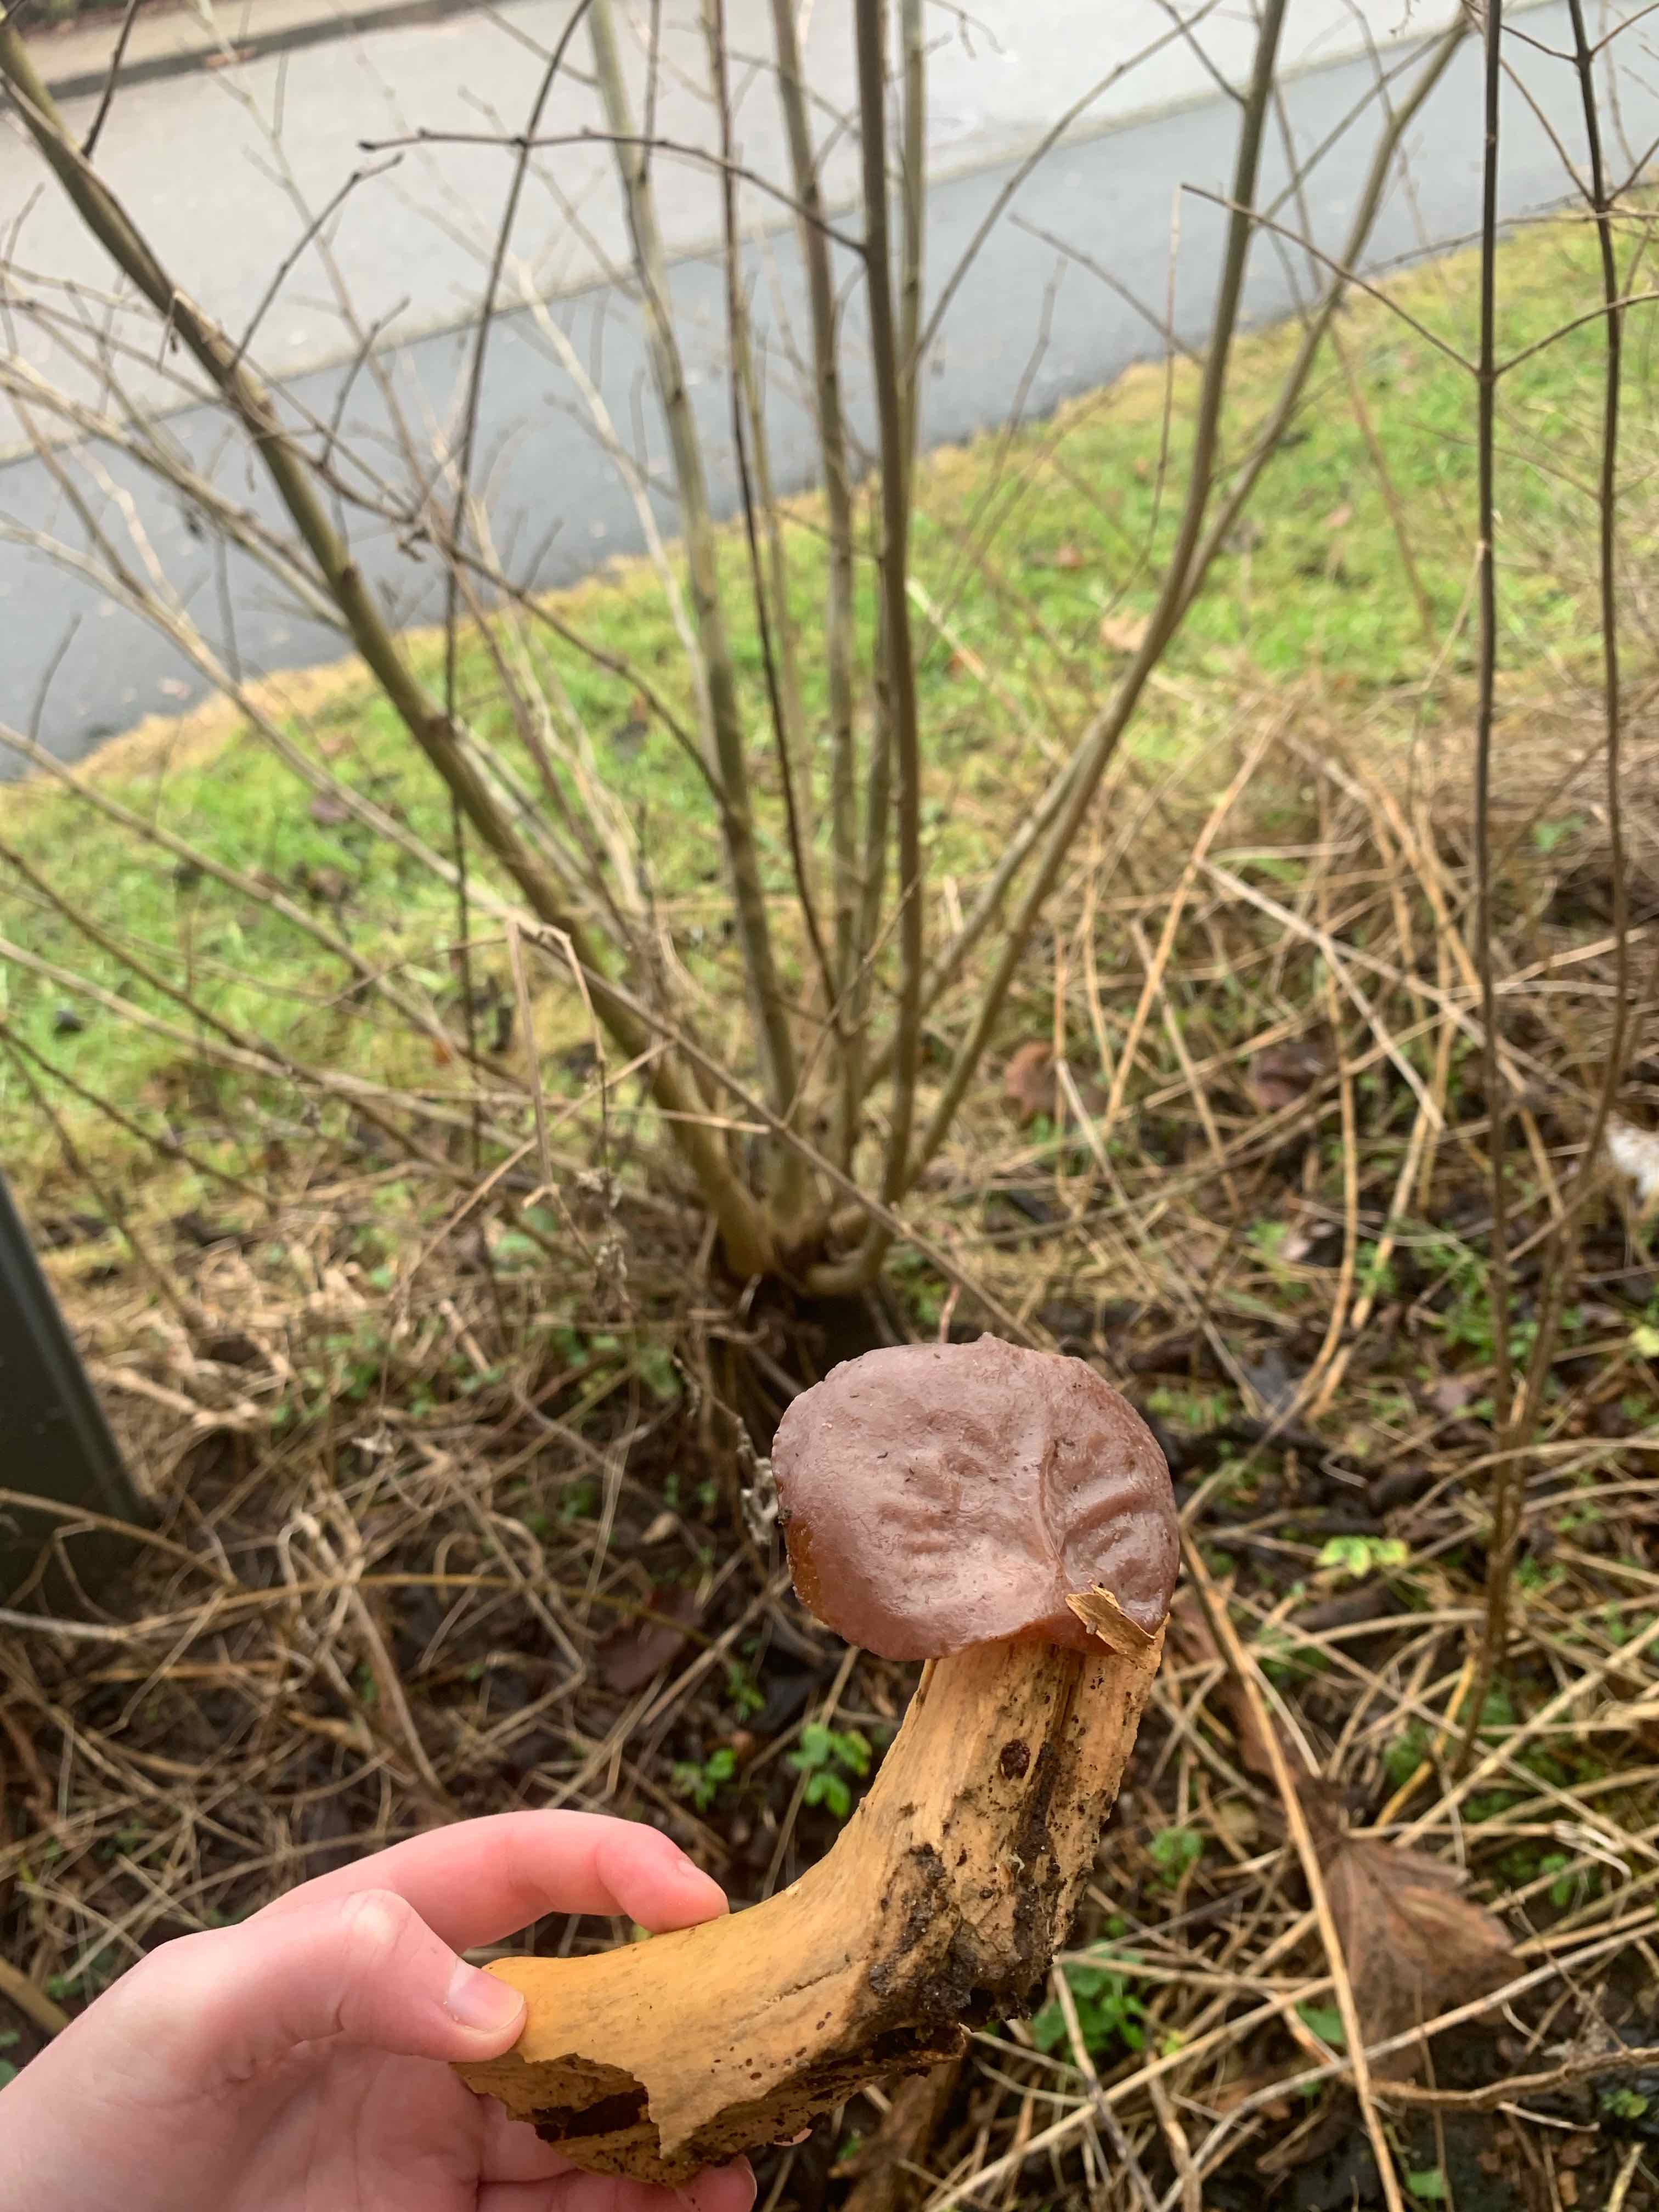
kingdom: Fungi
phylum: Basidiomycota
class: Agaricomycetes
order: Auriculariales
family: Auriculariaceae
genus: Auricularia
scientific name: Auricularia auricula-judae
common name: almindelig judasøre
